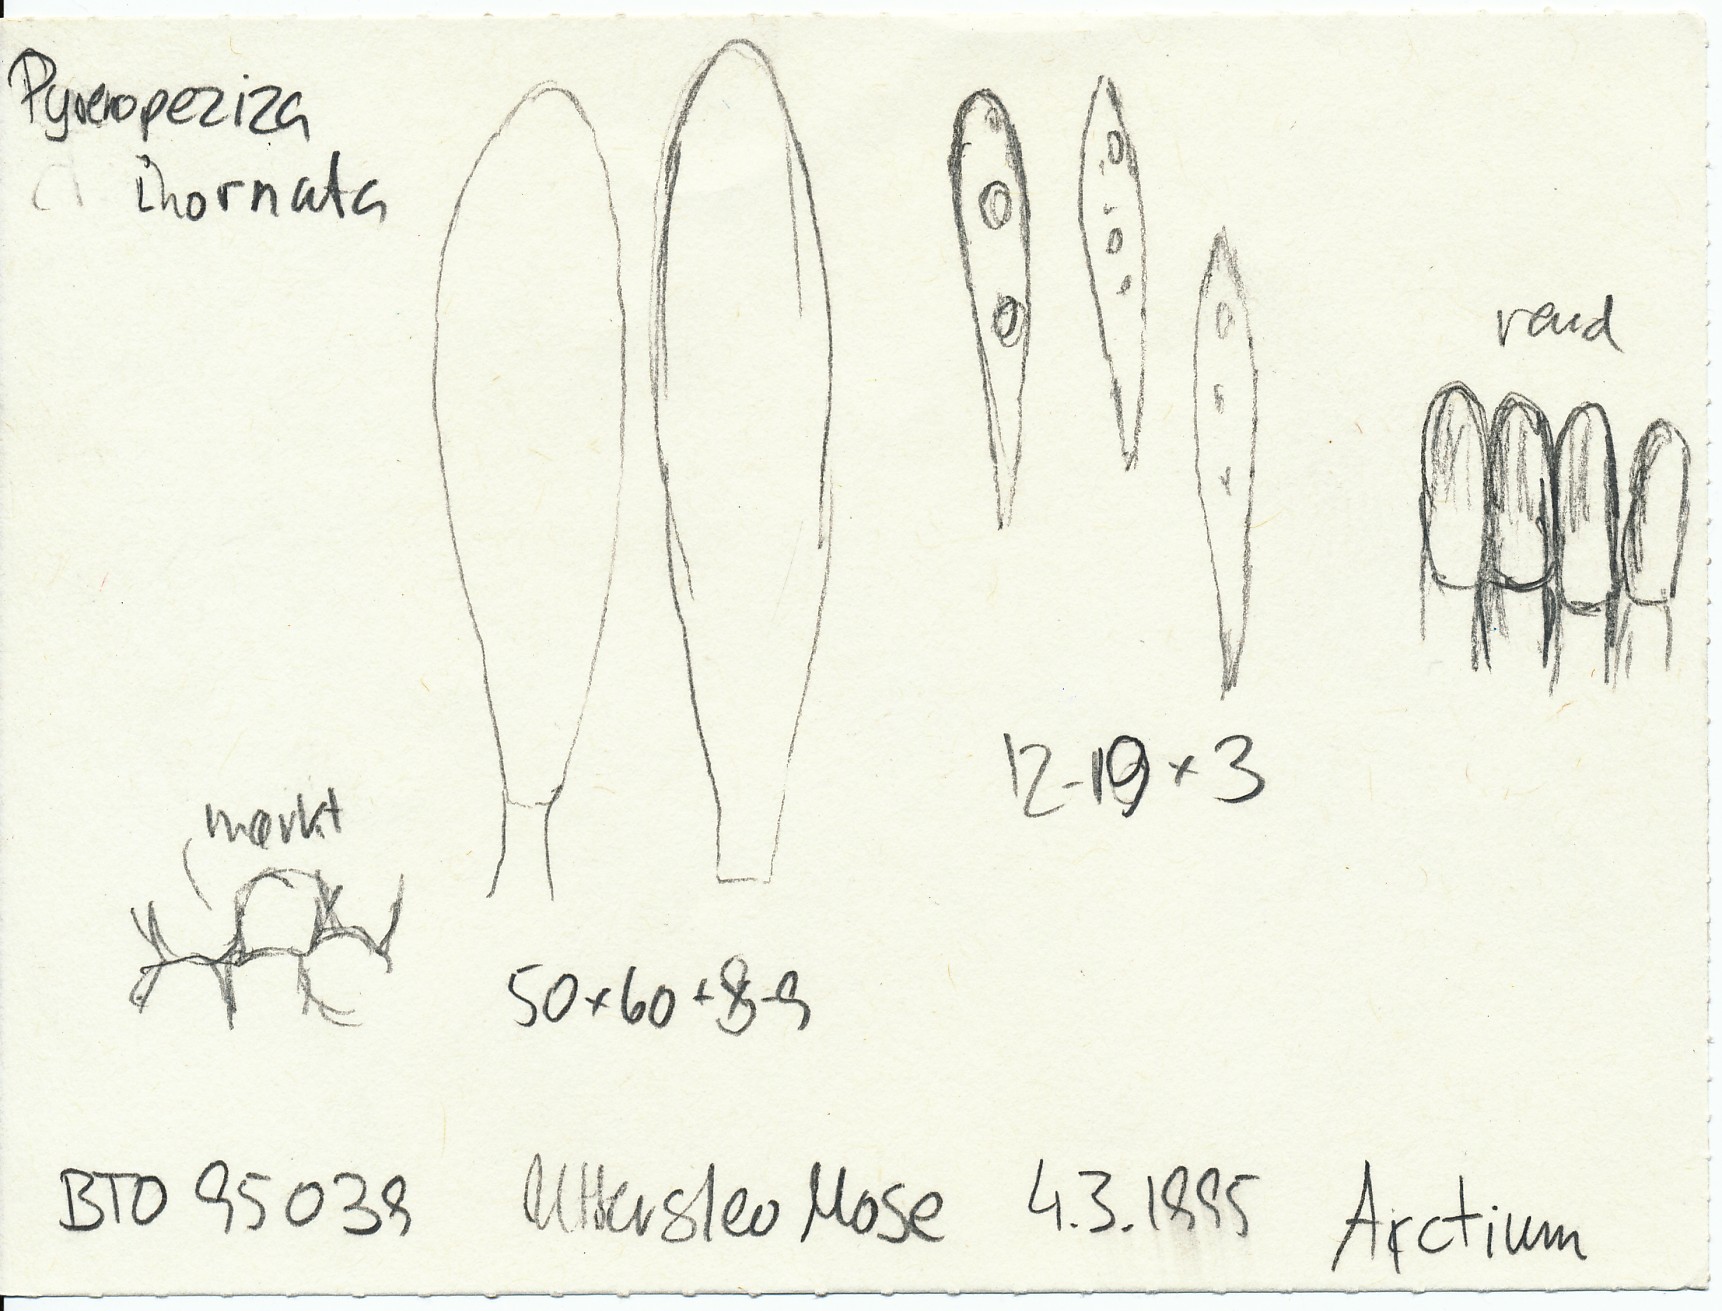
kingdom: Fungi
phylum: Ascomycota
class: Leotiomycetes
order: Helotiales
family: Ploettnerulaceae
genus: Pyrenopeziza
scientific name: Pyrenopeziza inornata
